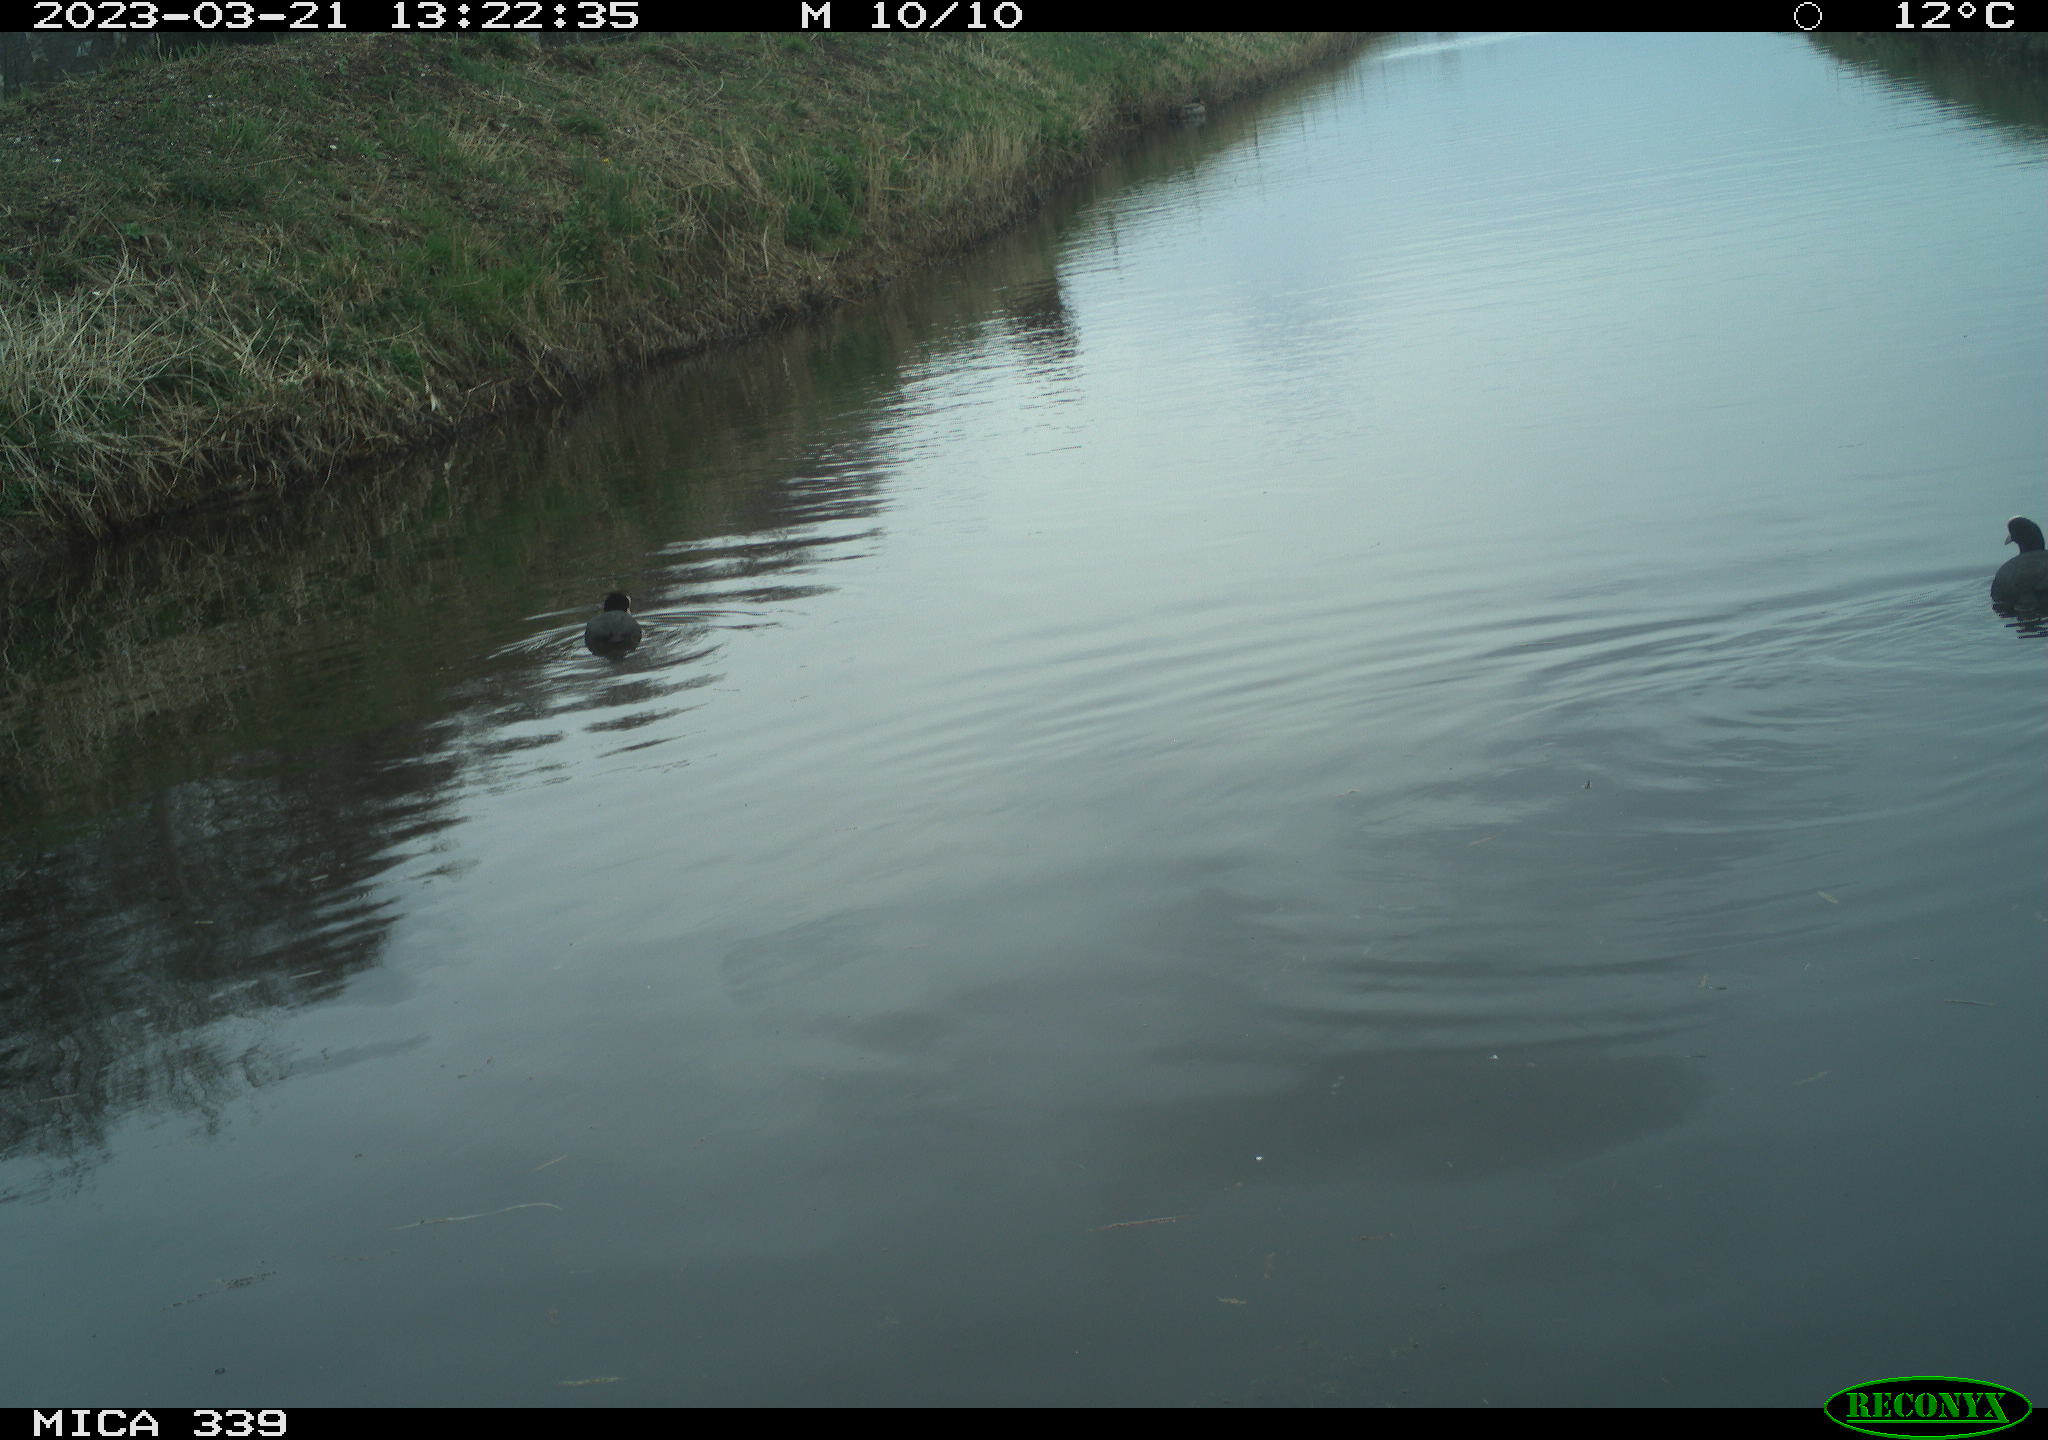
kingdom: Animalia
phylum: Chordata
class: Aves
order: Gruiformes
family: Rallidae
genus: Fulica
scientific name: Fulica atra
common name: Eurasian coot
